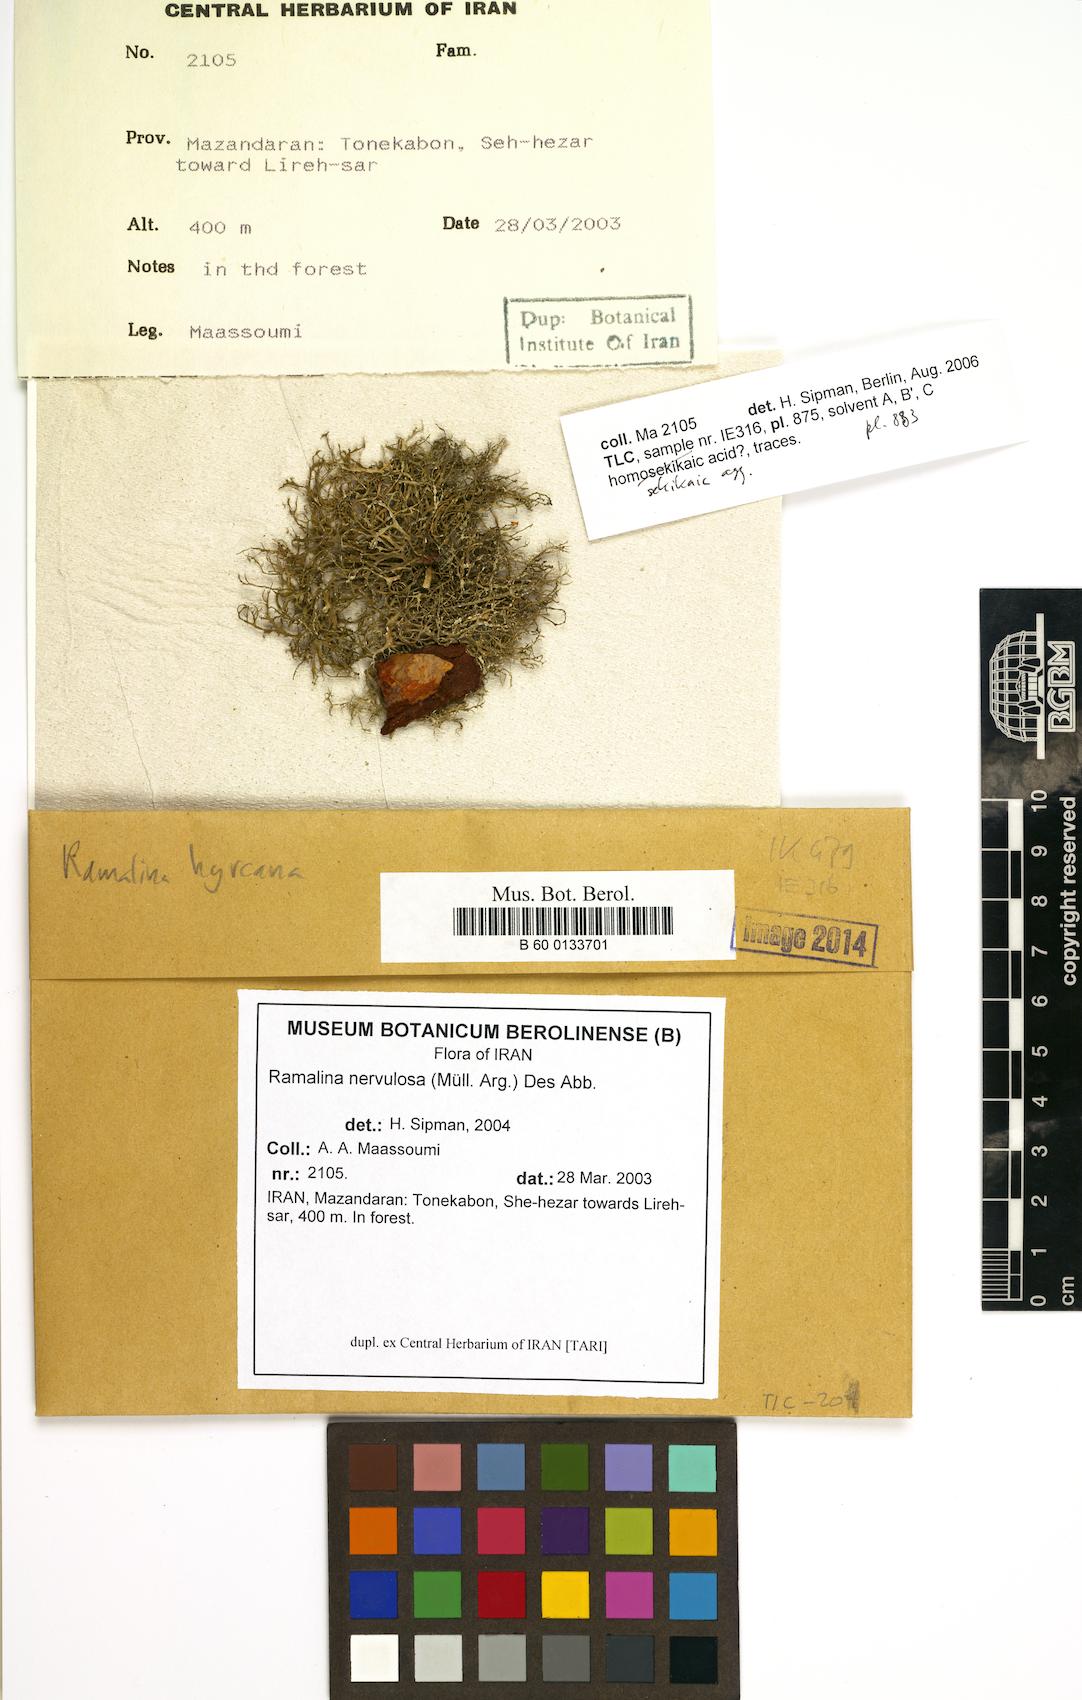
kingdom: Fungi
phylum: Ascomycota
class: Lecanoromycetes
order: Lecanorales
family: Ramalinaceae
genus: Ramalina
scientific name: Ramalina nervulosa
